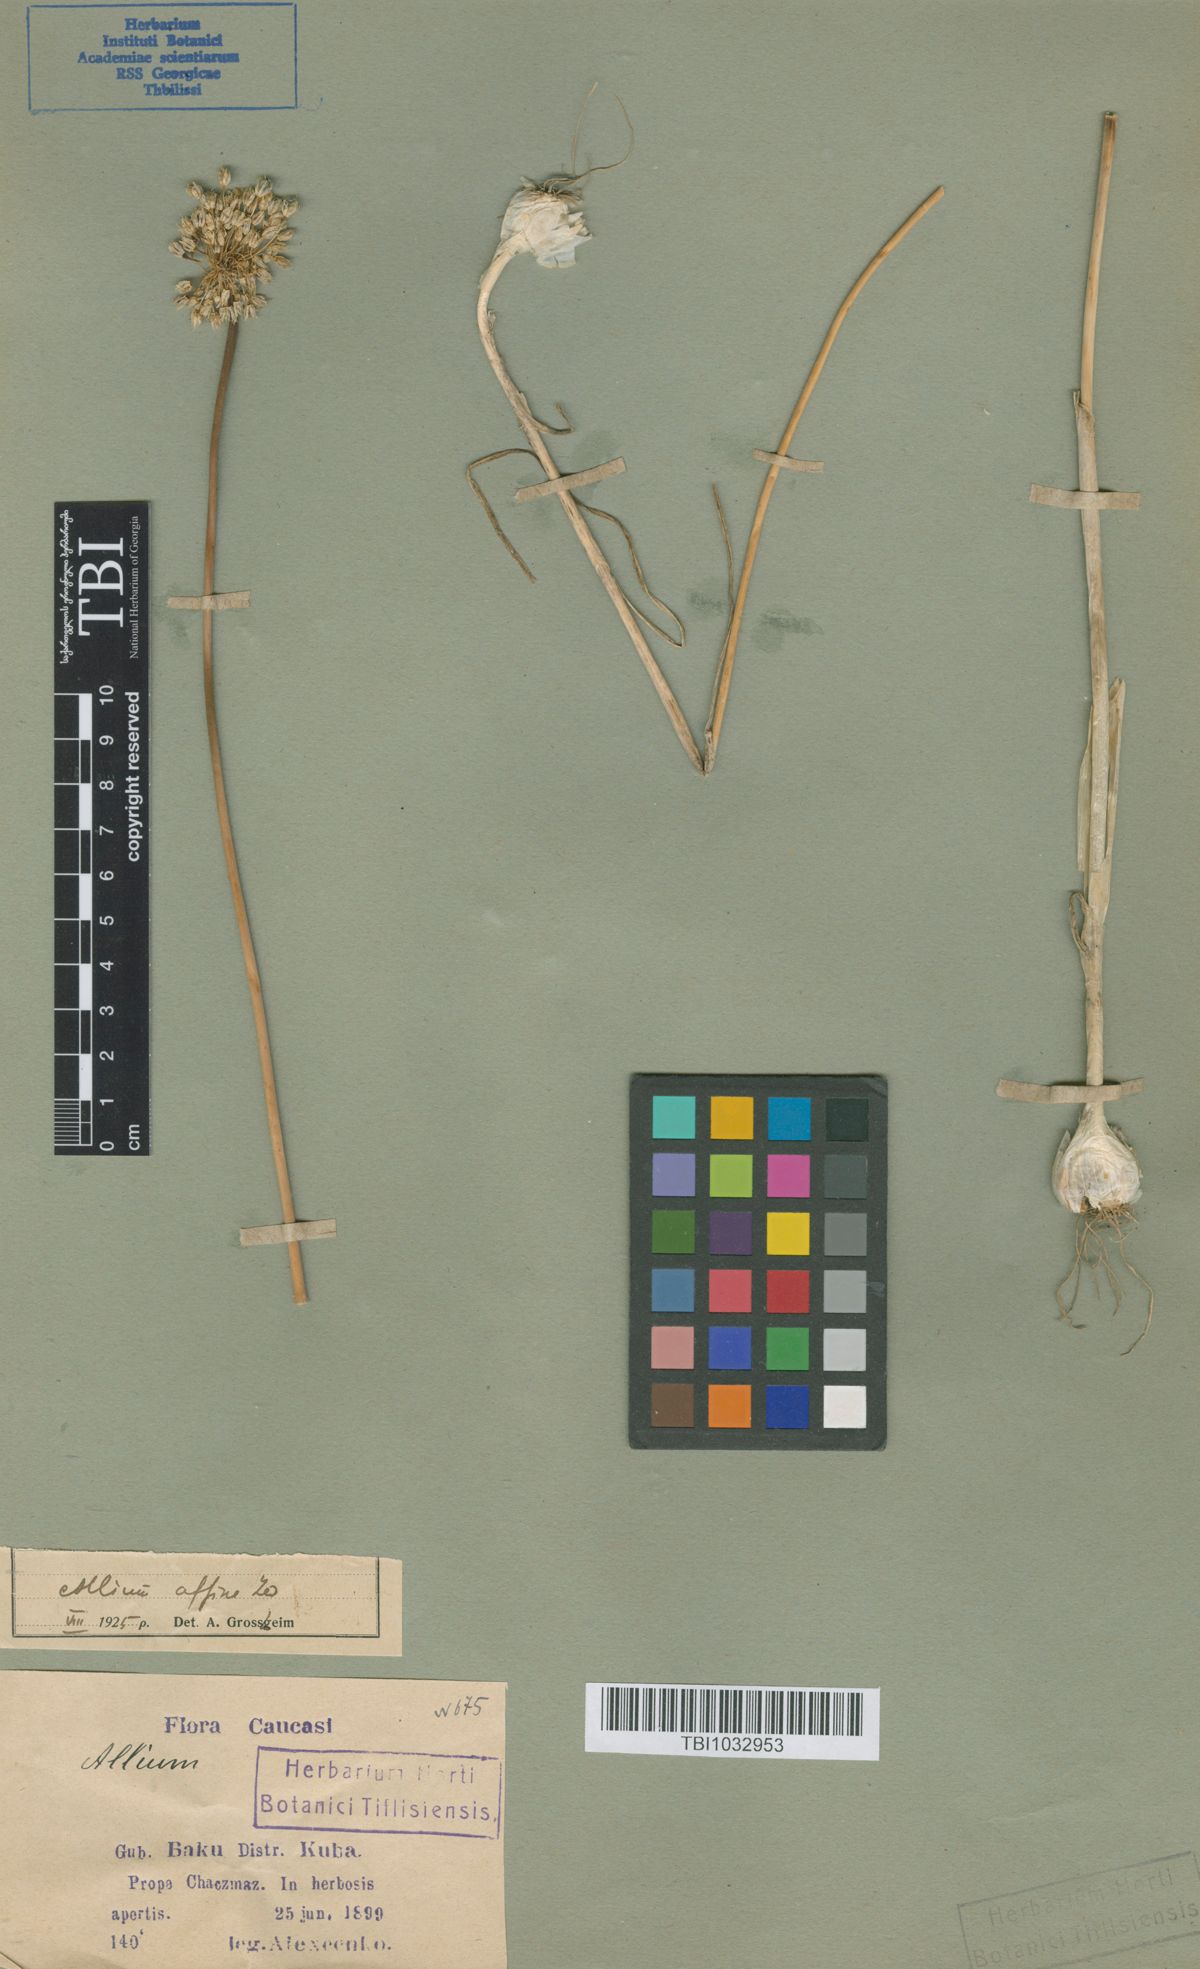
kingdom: Plantae
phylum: Tracheophyta
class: Liliopsida
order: Asparagales
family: Amaryllidaceae
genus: Allium
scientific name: Allium affine
